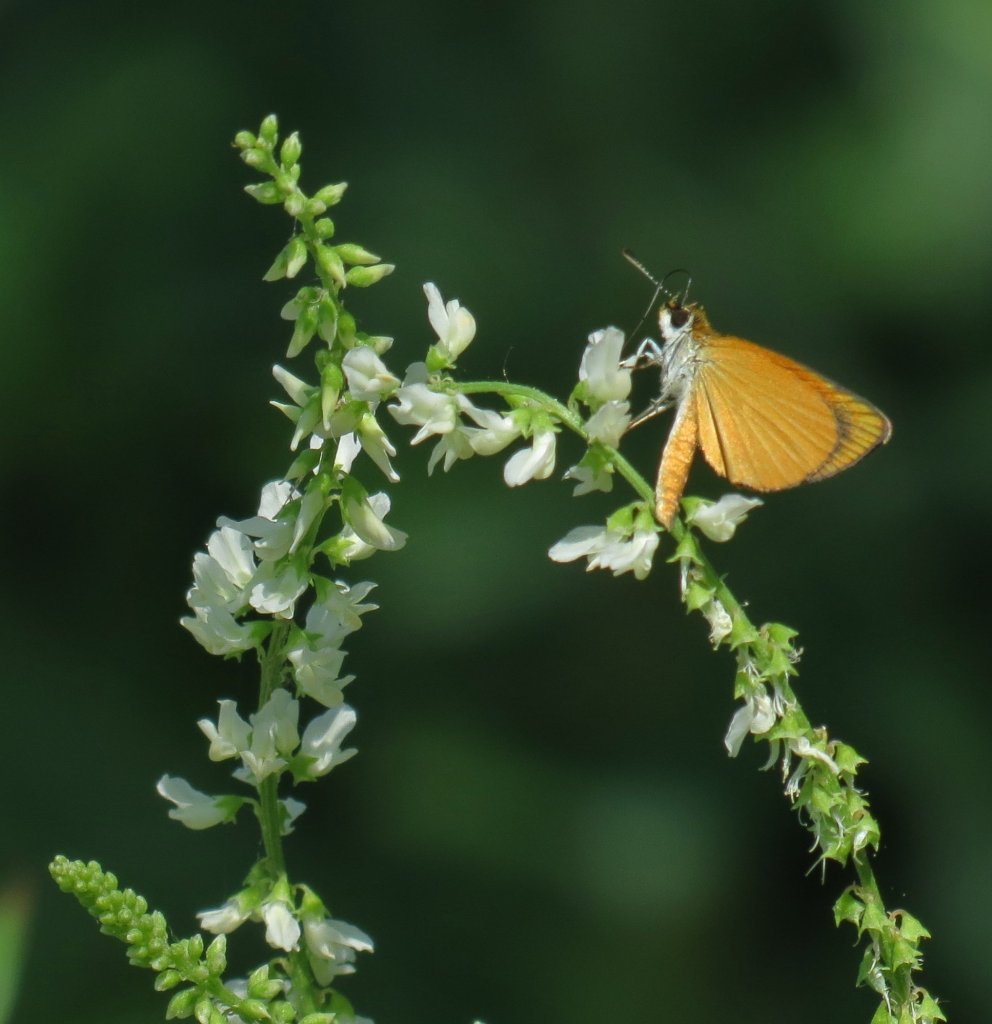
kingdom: Animalia
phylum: Arthropoda
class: Insecta
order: Lepidoptera
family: Hesperiidae
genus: Ancyloxypha
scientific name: Ancyloxypha numitor
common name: Least Skipper
